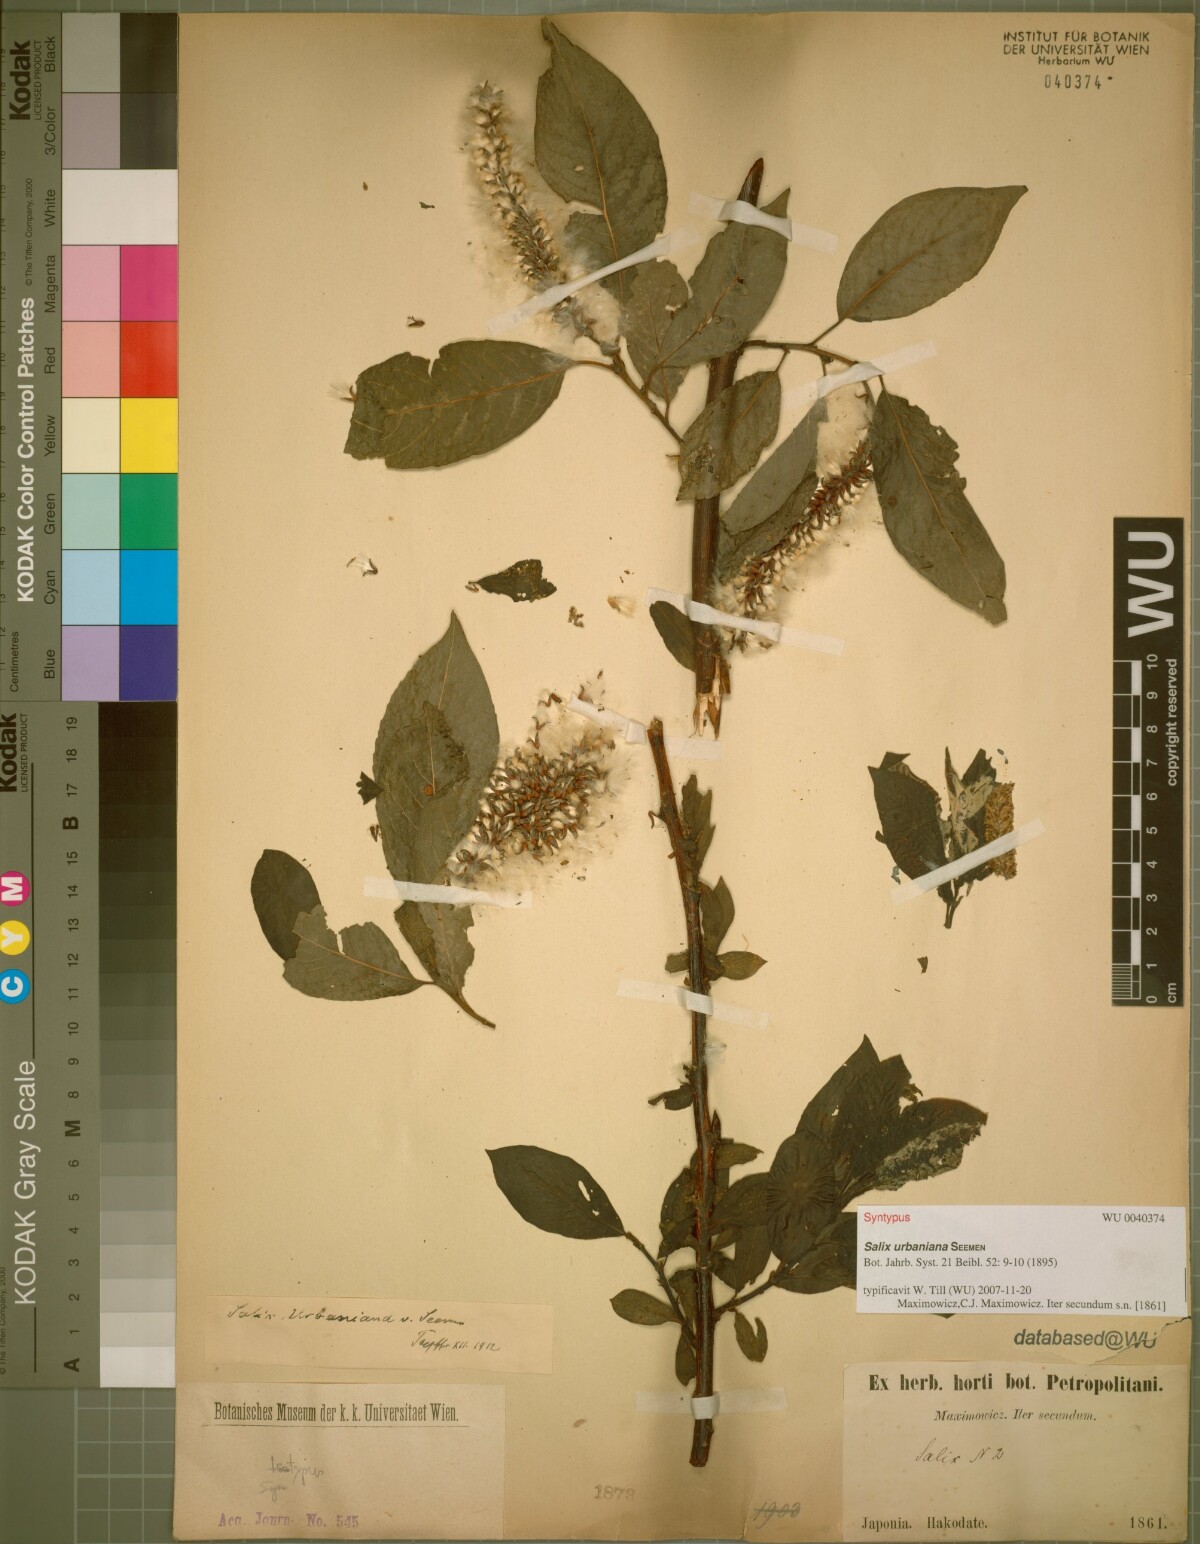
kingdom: Plantae
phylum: Tracheophyta
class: Magnoliopsida
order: Malpighiales
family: Salicaceae
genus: Chosenia
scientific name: Chosenia urbaniana
